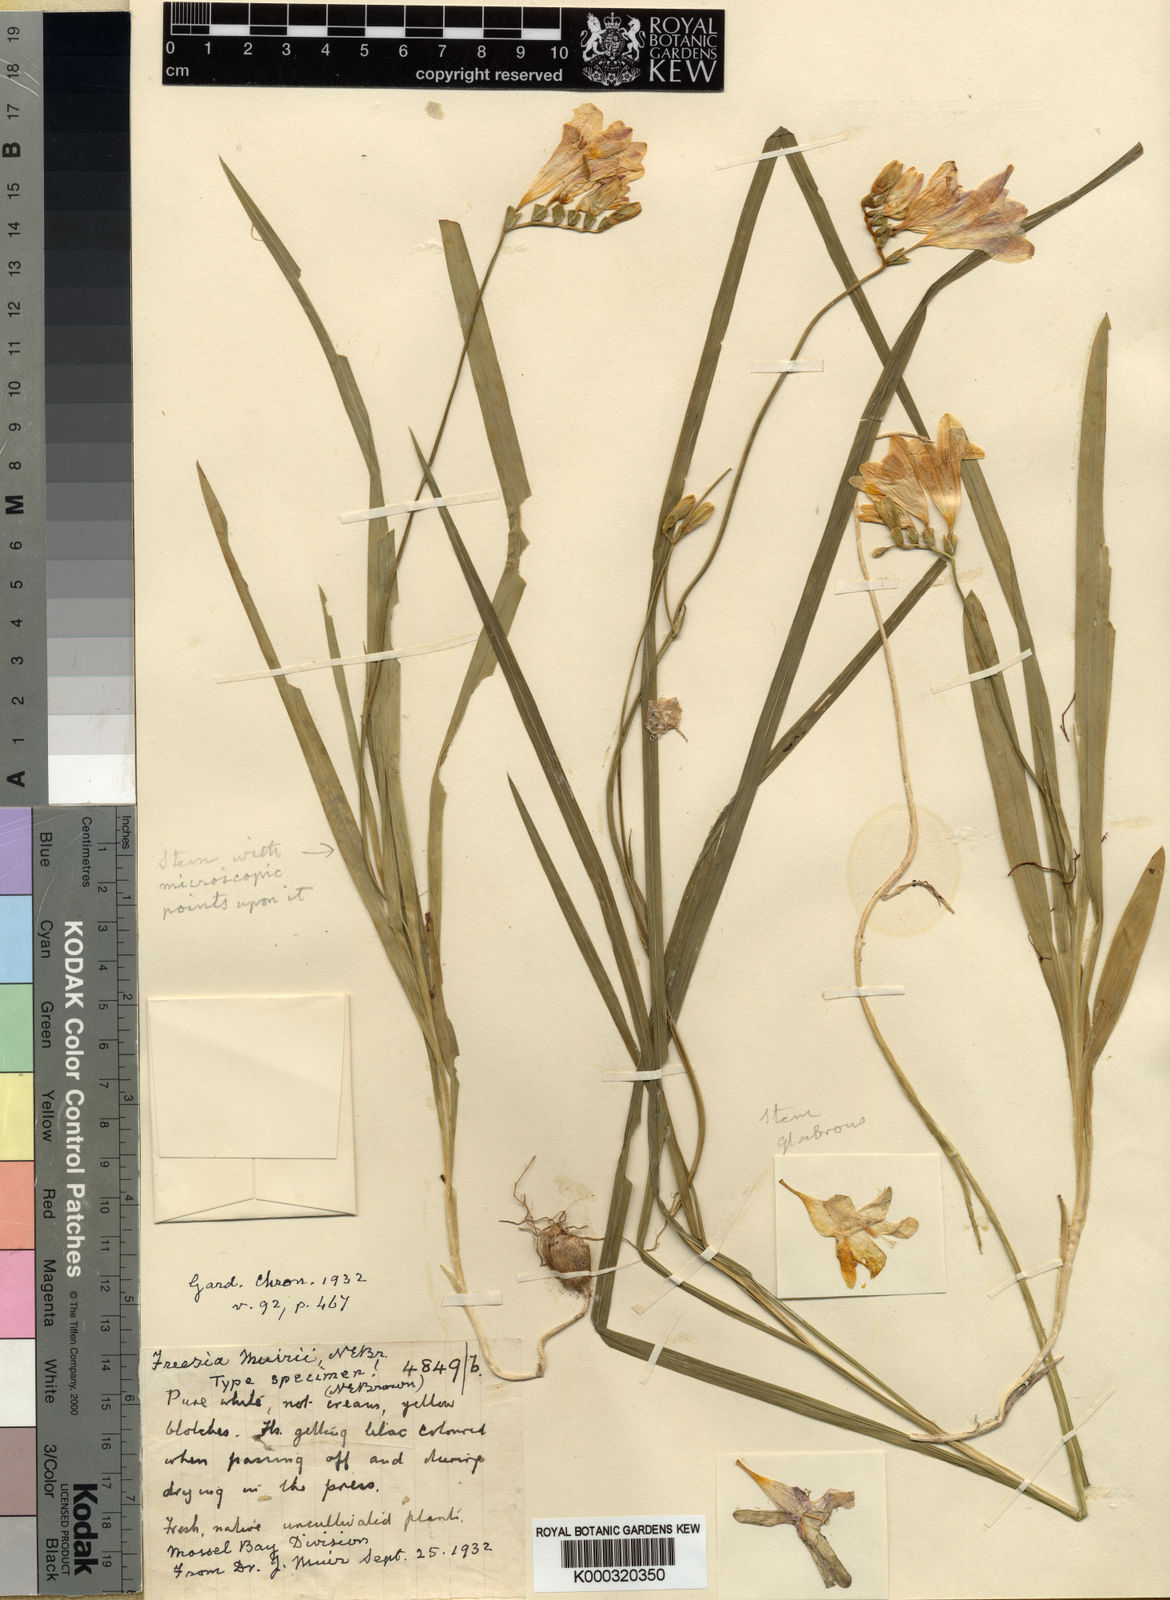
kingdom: Plantae
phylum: Tracheophyta
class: Liliopsida
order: Asparagales
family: Iridaceae
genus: Freesia
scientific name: Freesia leichtlinii
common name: Freesia
